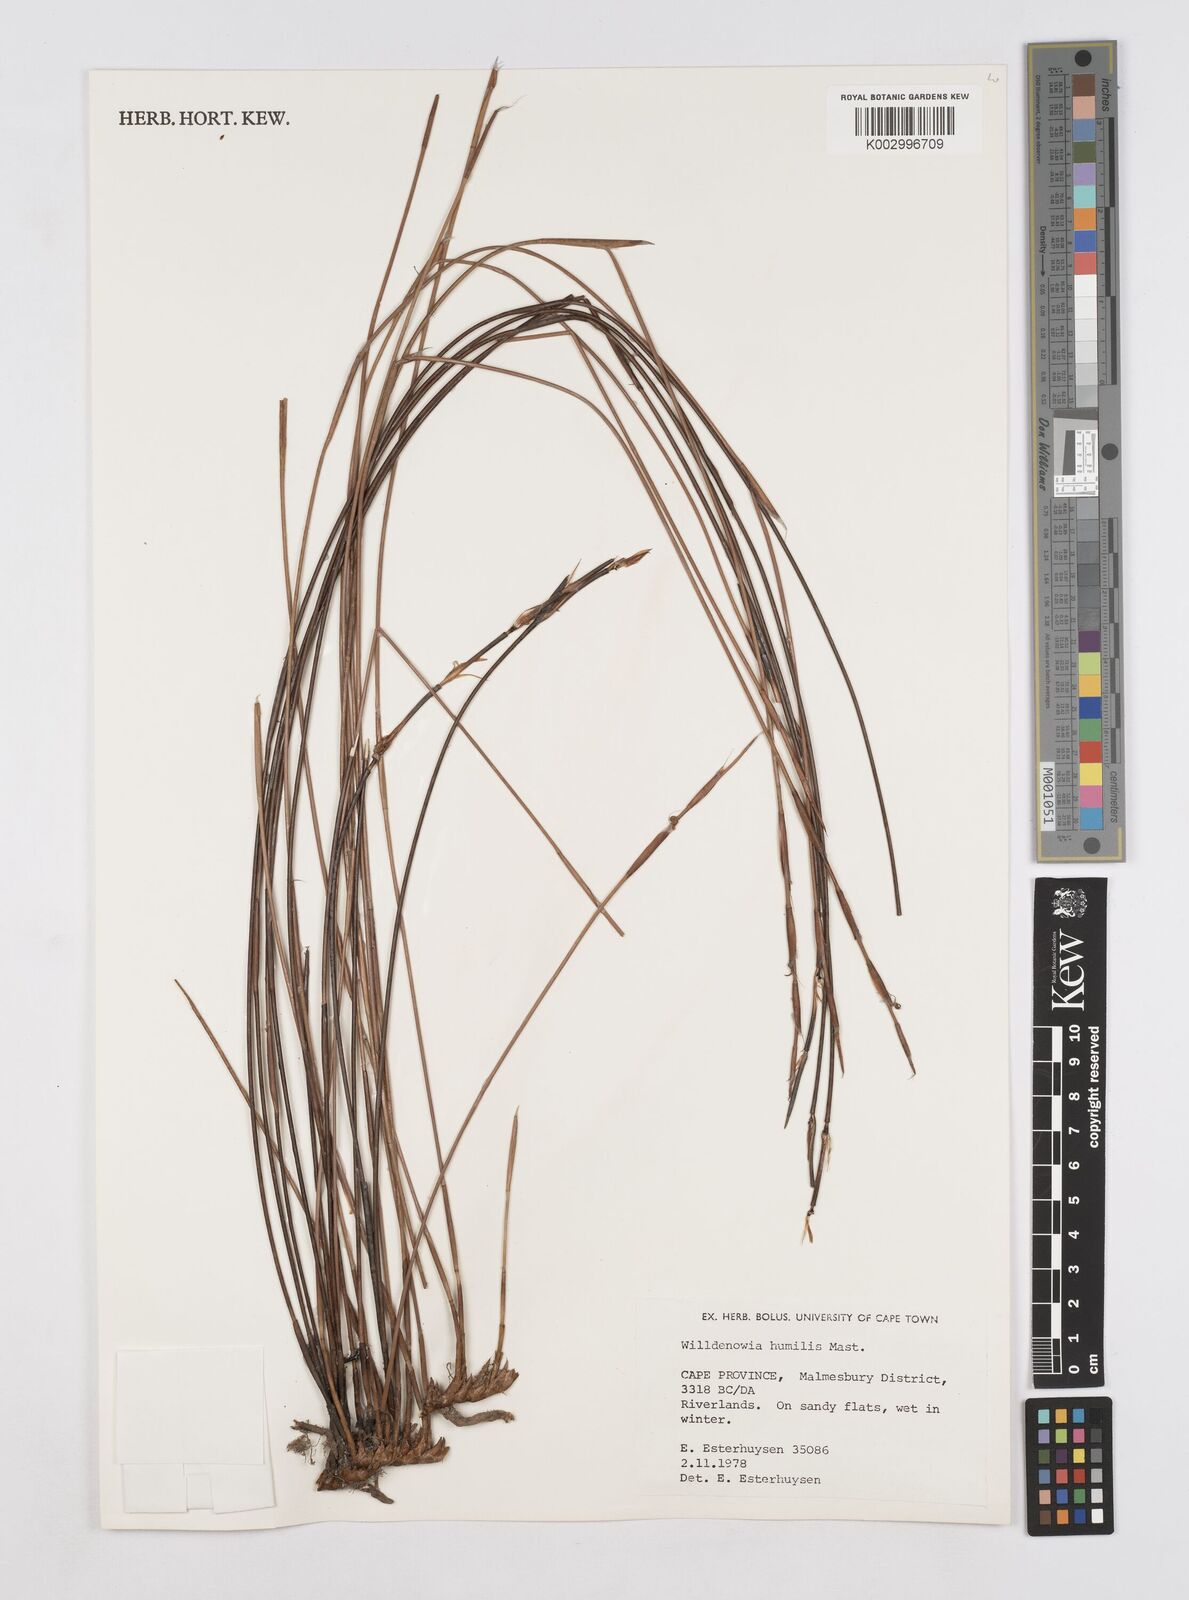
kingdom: Plantae
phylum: Tracheophyta
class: Liliopsida
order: Poales
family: Restionaceae
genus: Willdenowia
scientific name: Willdenowia humilis
